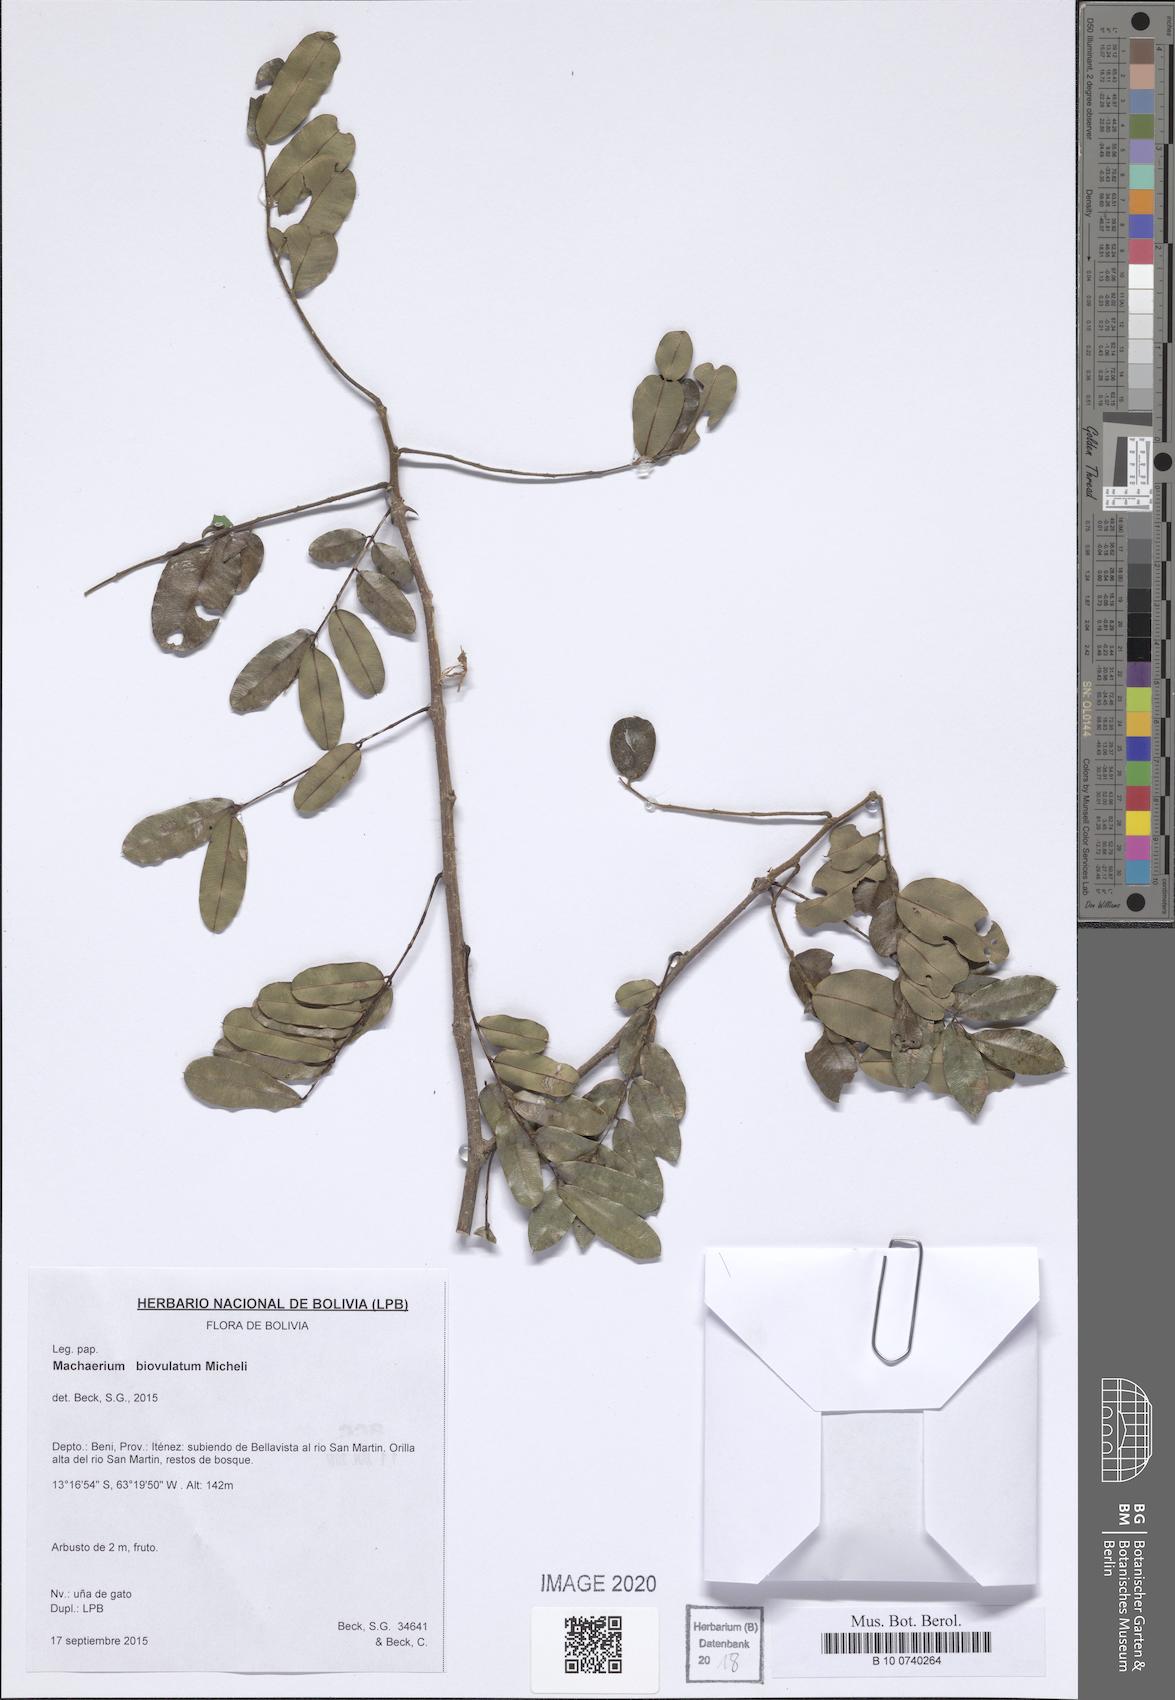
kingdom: Plantae
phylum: Tracheophyta
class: Magnoliopsida
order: Fabales
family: Fabaceae
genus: Machaerium
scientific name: Machaerium biovulatum
